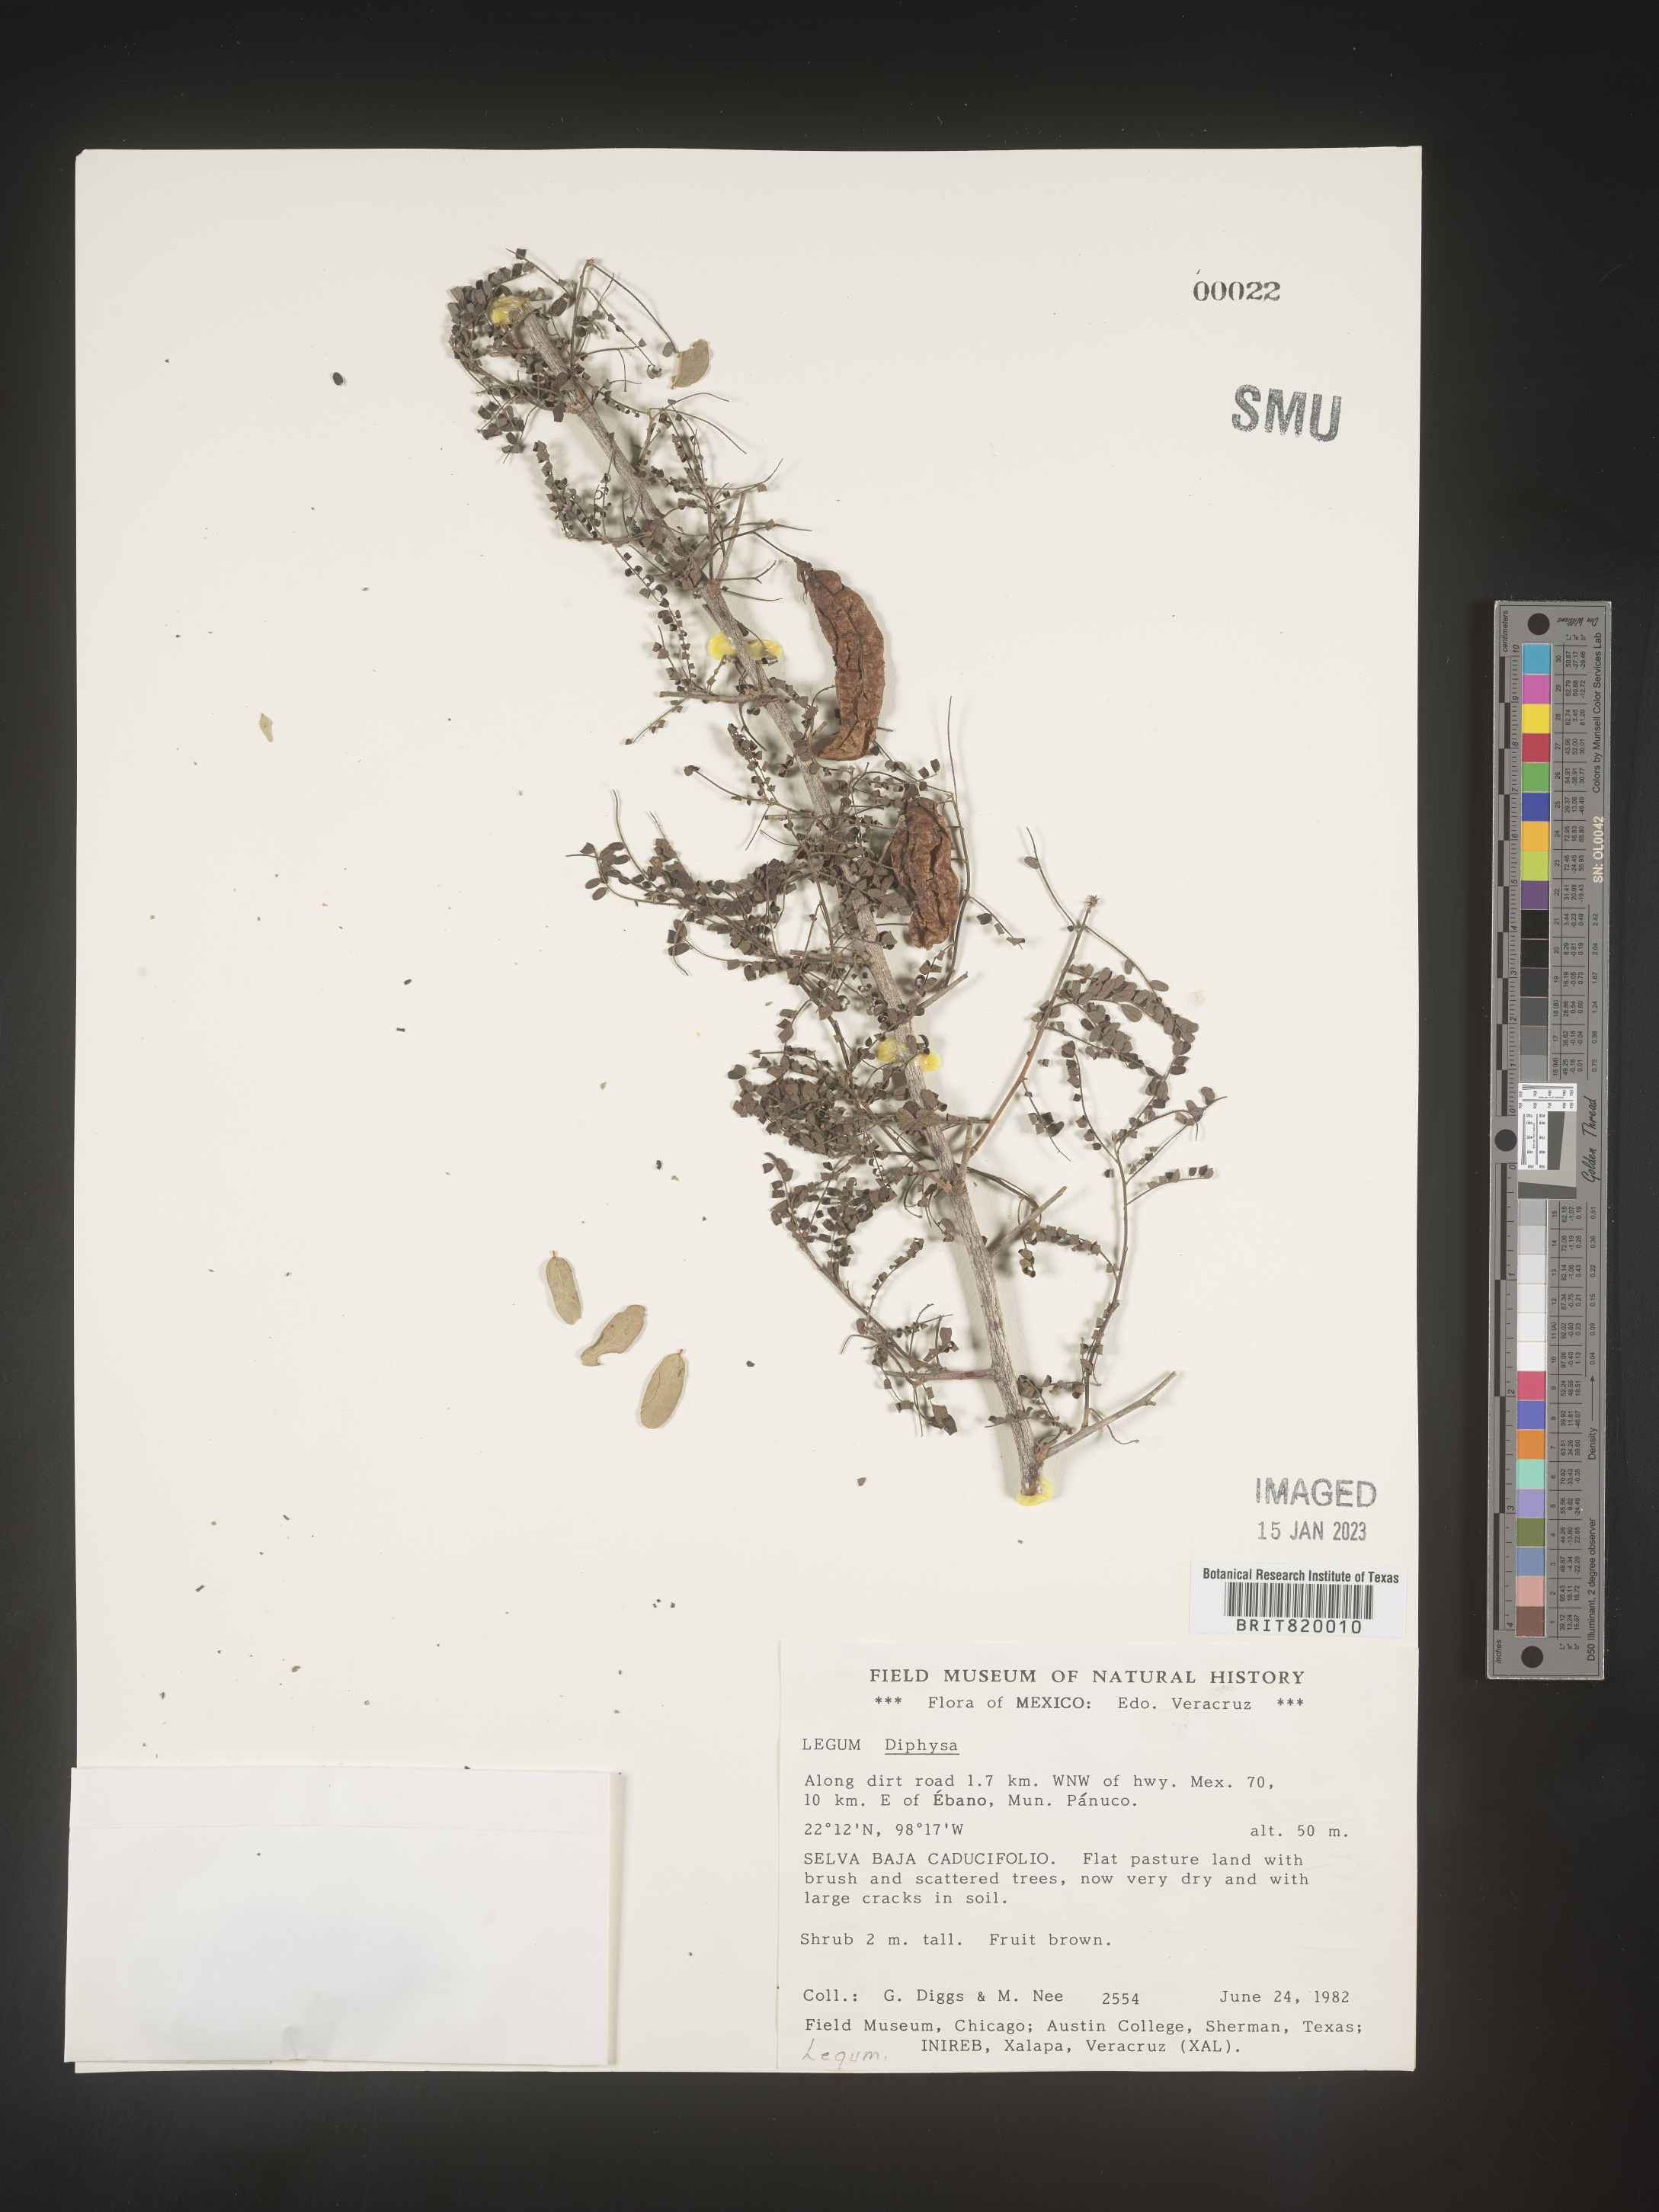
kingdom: Plantae
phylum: Tracheophyta
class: Magnoliopsida
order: Fabales
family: Fabaceae
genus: Diphysa
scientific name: Diphysa
